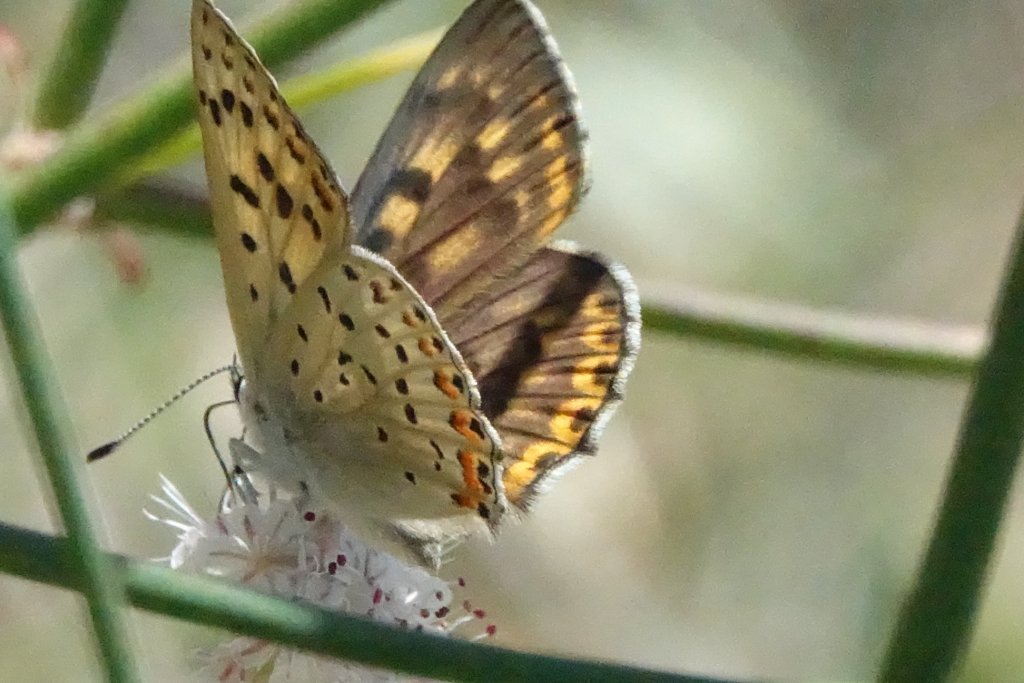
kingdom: Animalia
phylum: Arthropoda
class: Insecta
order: Lepidoptera
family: Lycaenidae
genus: Lycaena
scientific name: Lycaena gorgon
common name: Gorgon Copper
